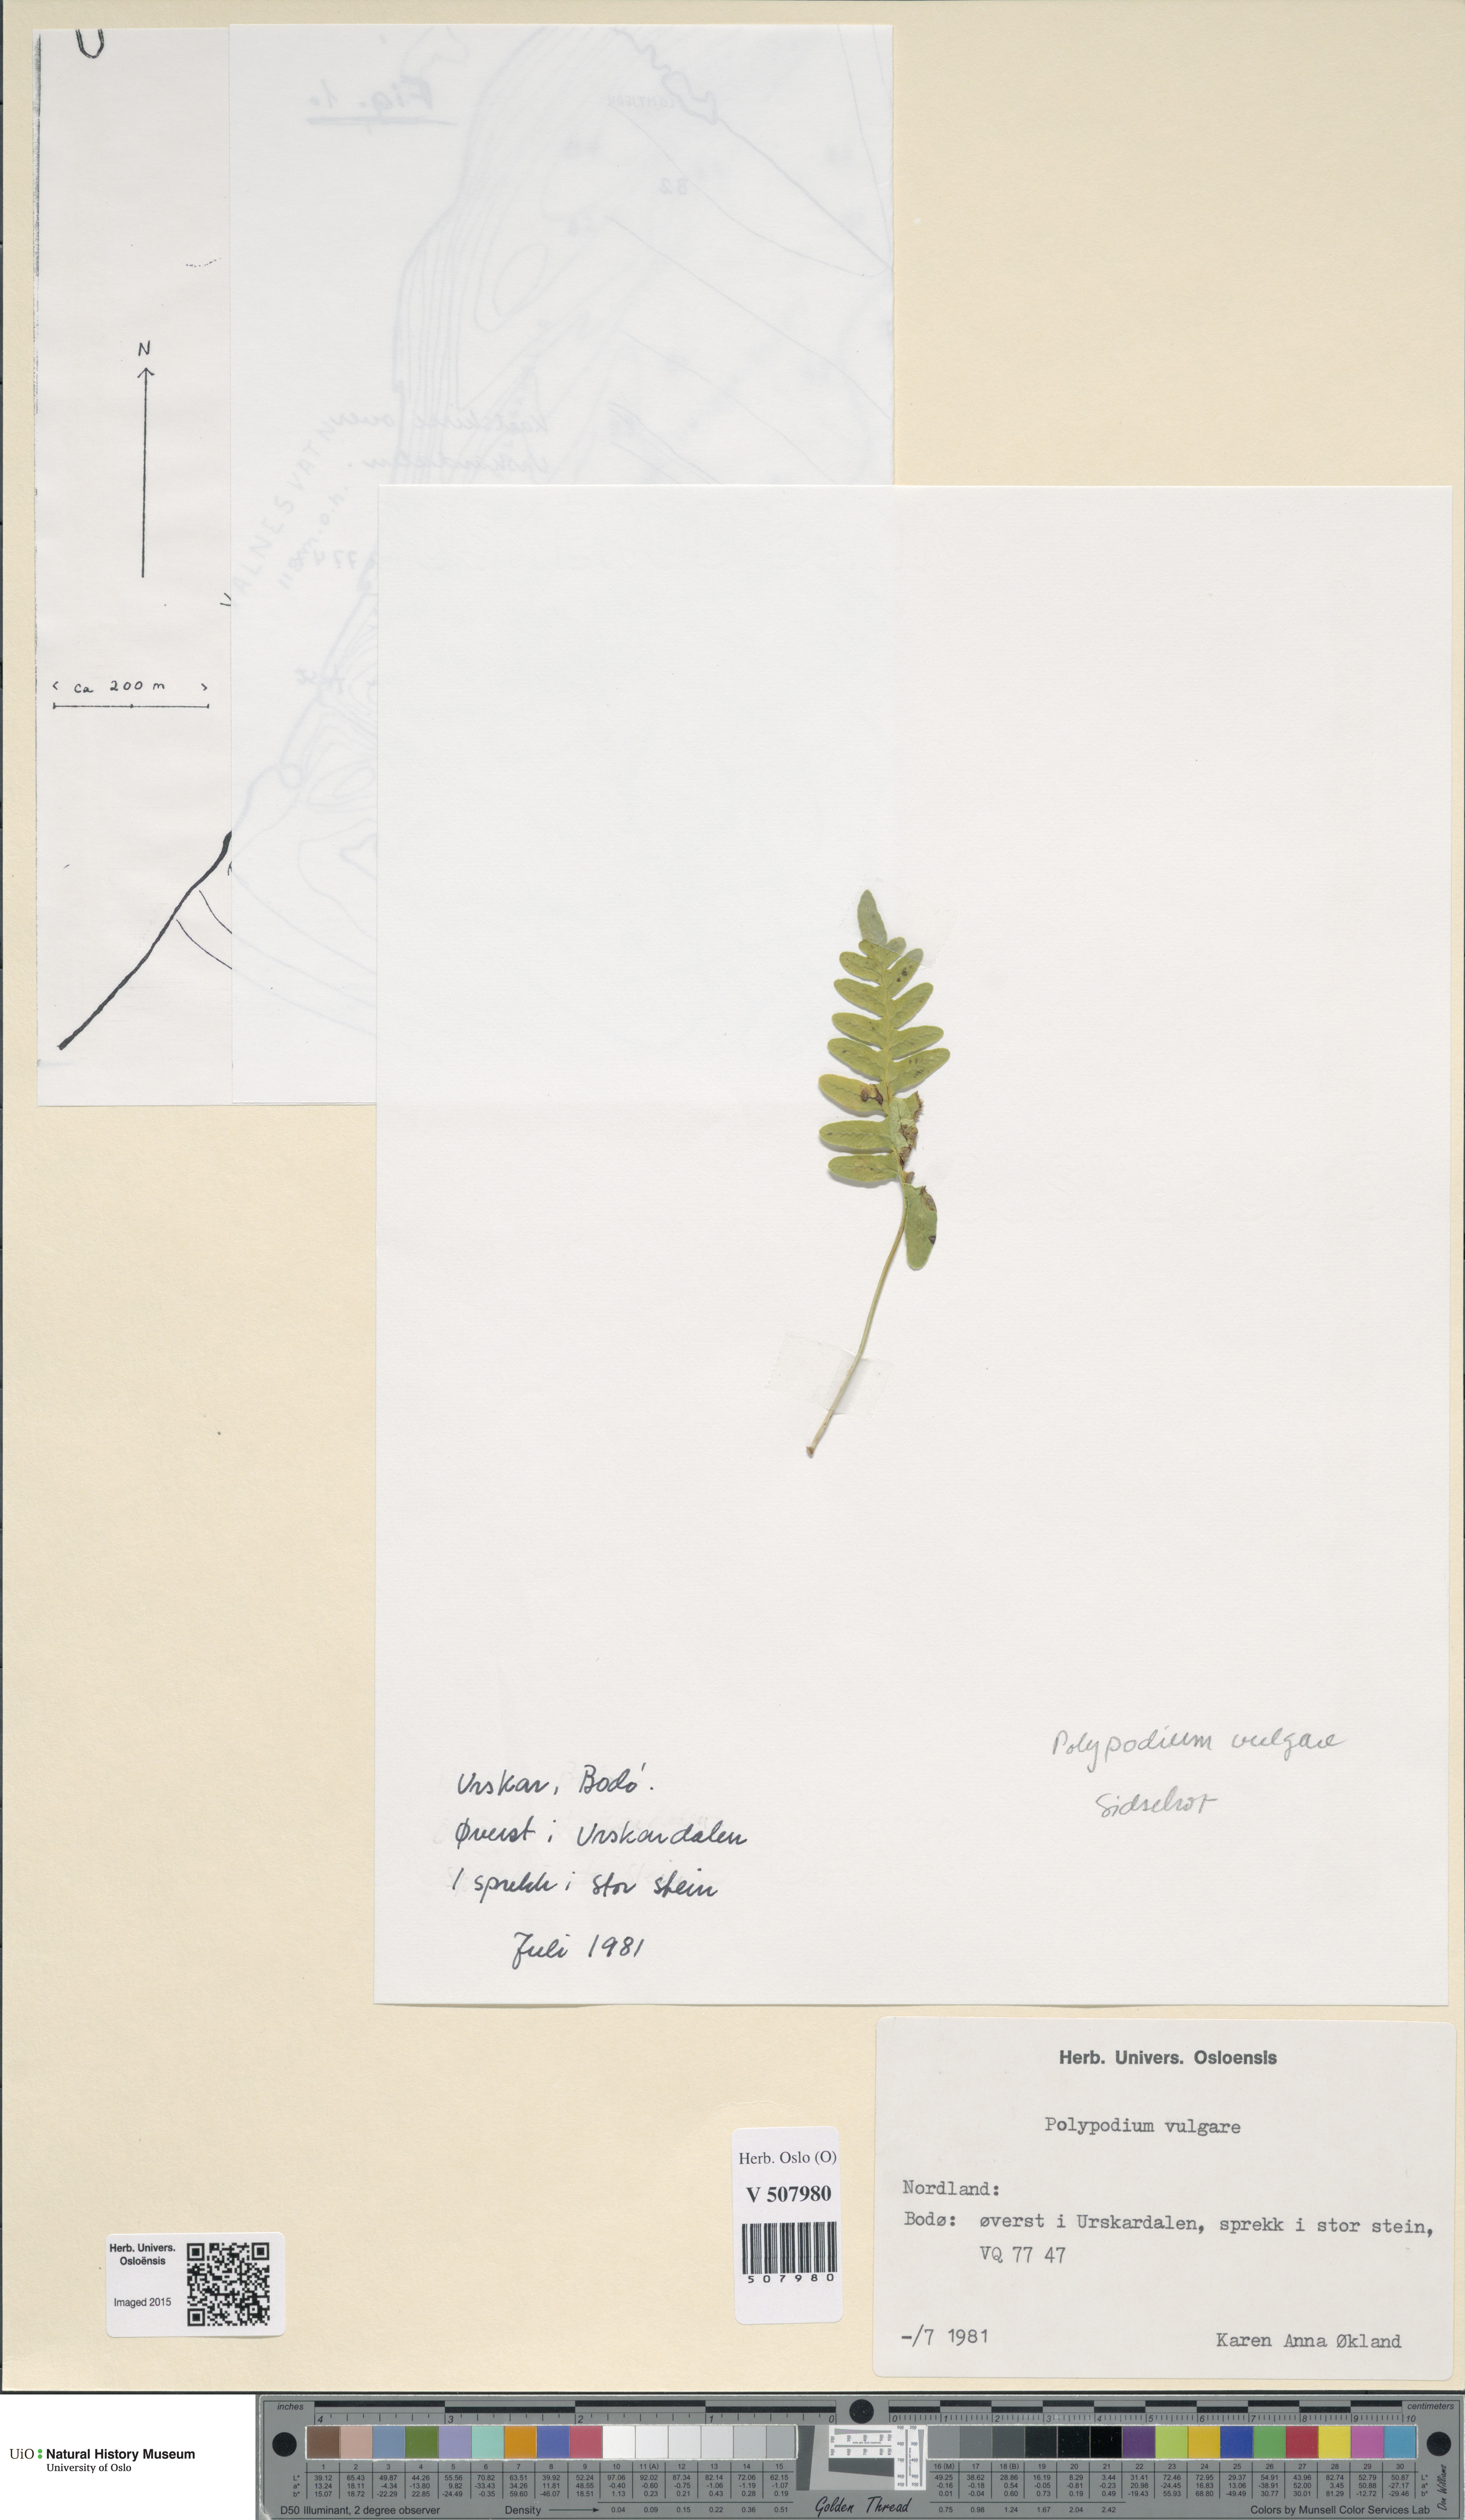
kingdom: Plantae
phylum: Tracheophyta
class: Polypodiopsida
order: Polypodiales
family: Polypodiaceae
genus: Polypodium
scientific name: Polypodium vulgare
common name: Common polypody
